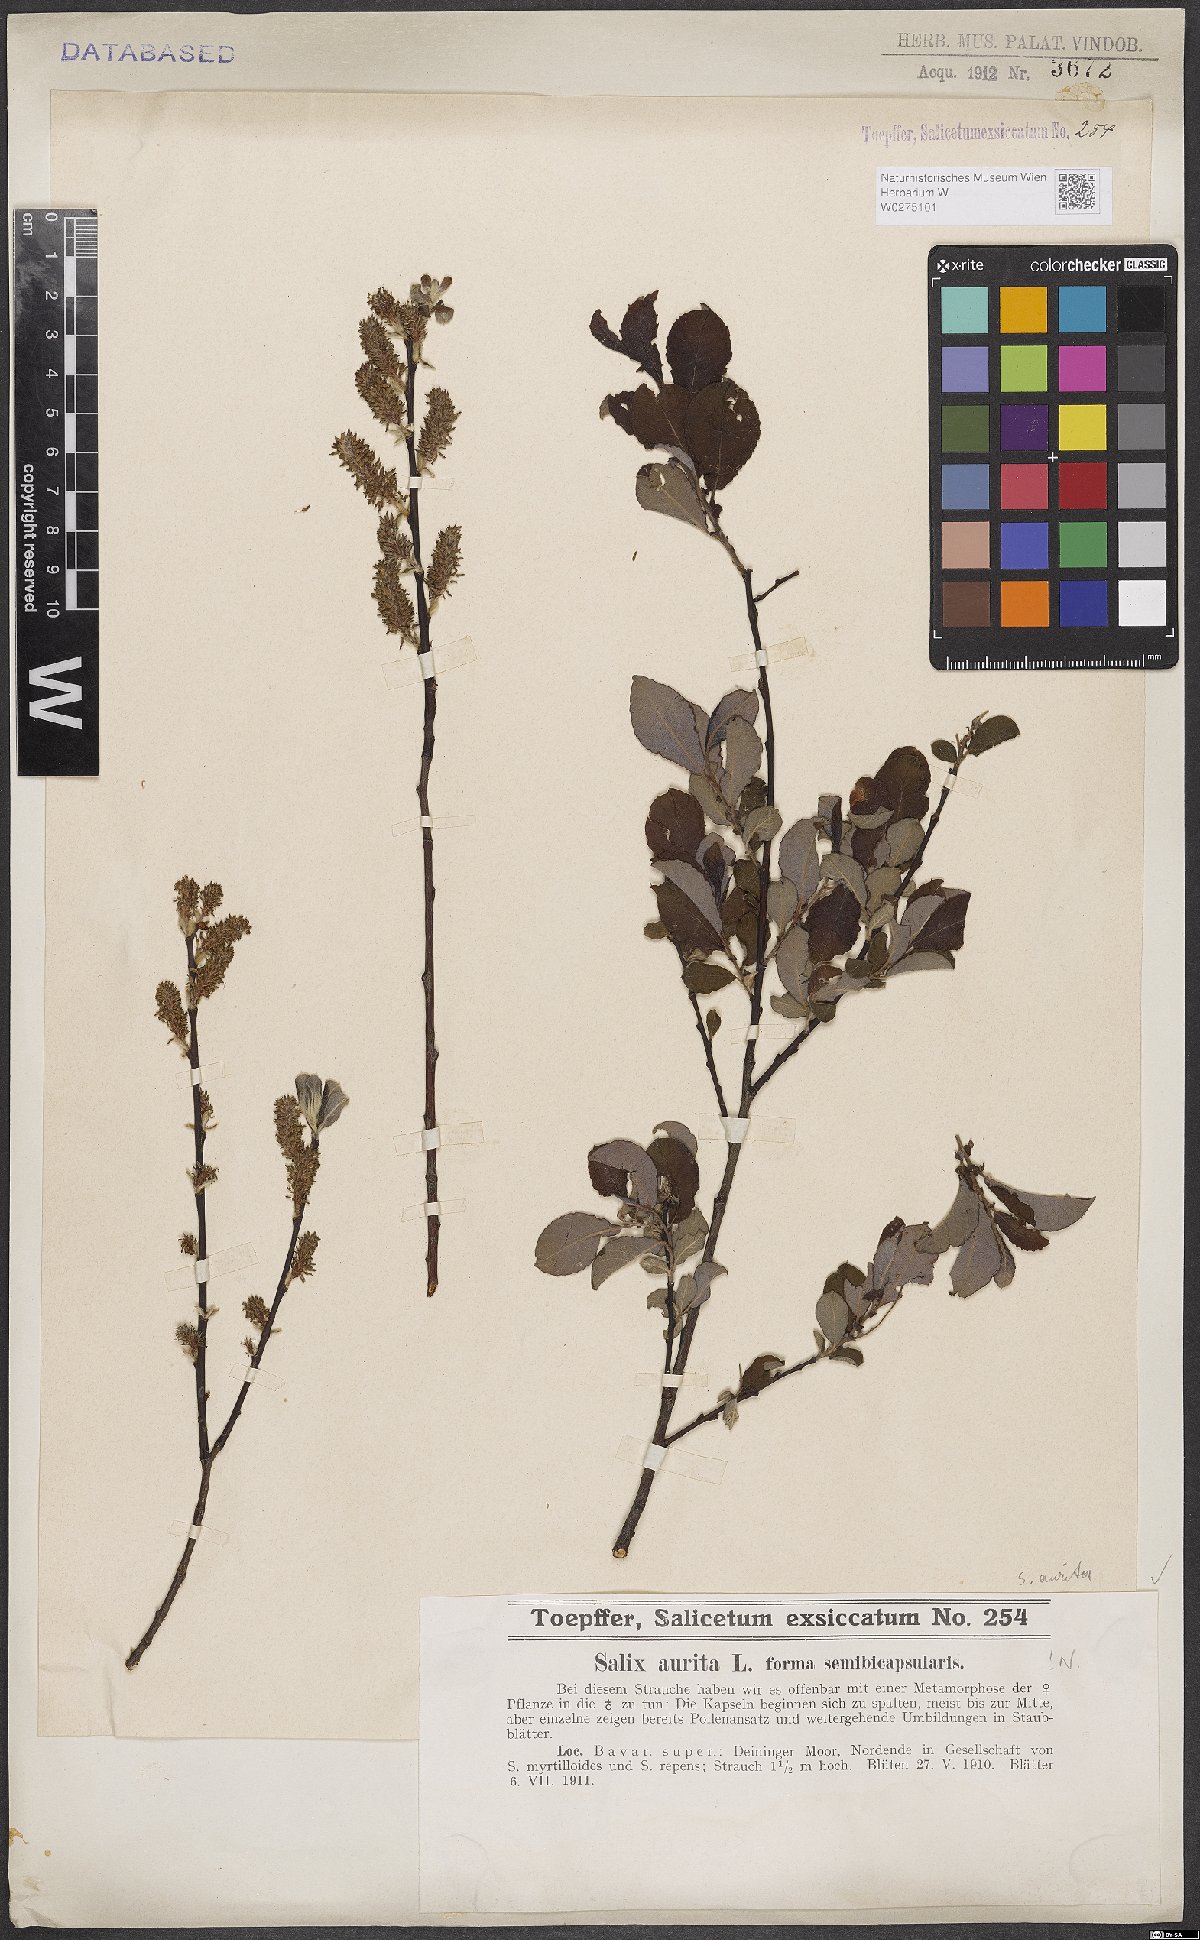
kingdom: Plantae
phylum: Tracheophyta
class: Magnoliopsida
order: Malpighiales
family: Salicaceae
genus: Salix
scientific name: Salix aurita
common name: Eared willow
